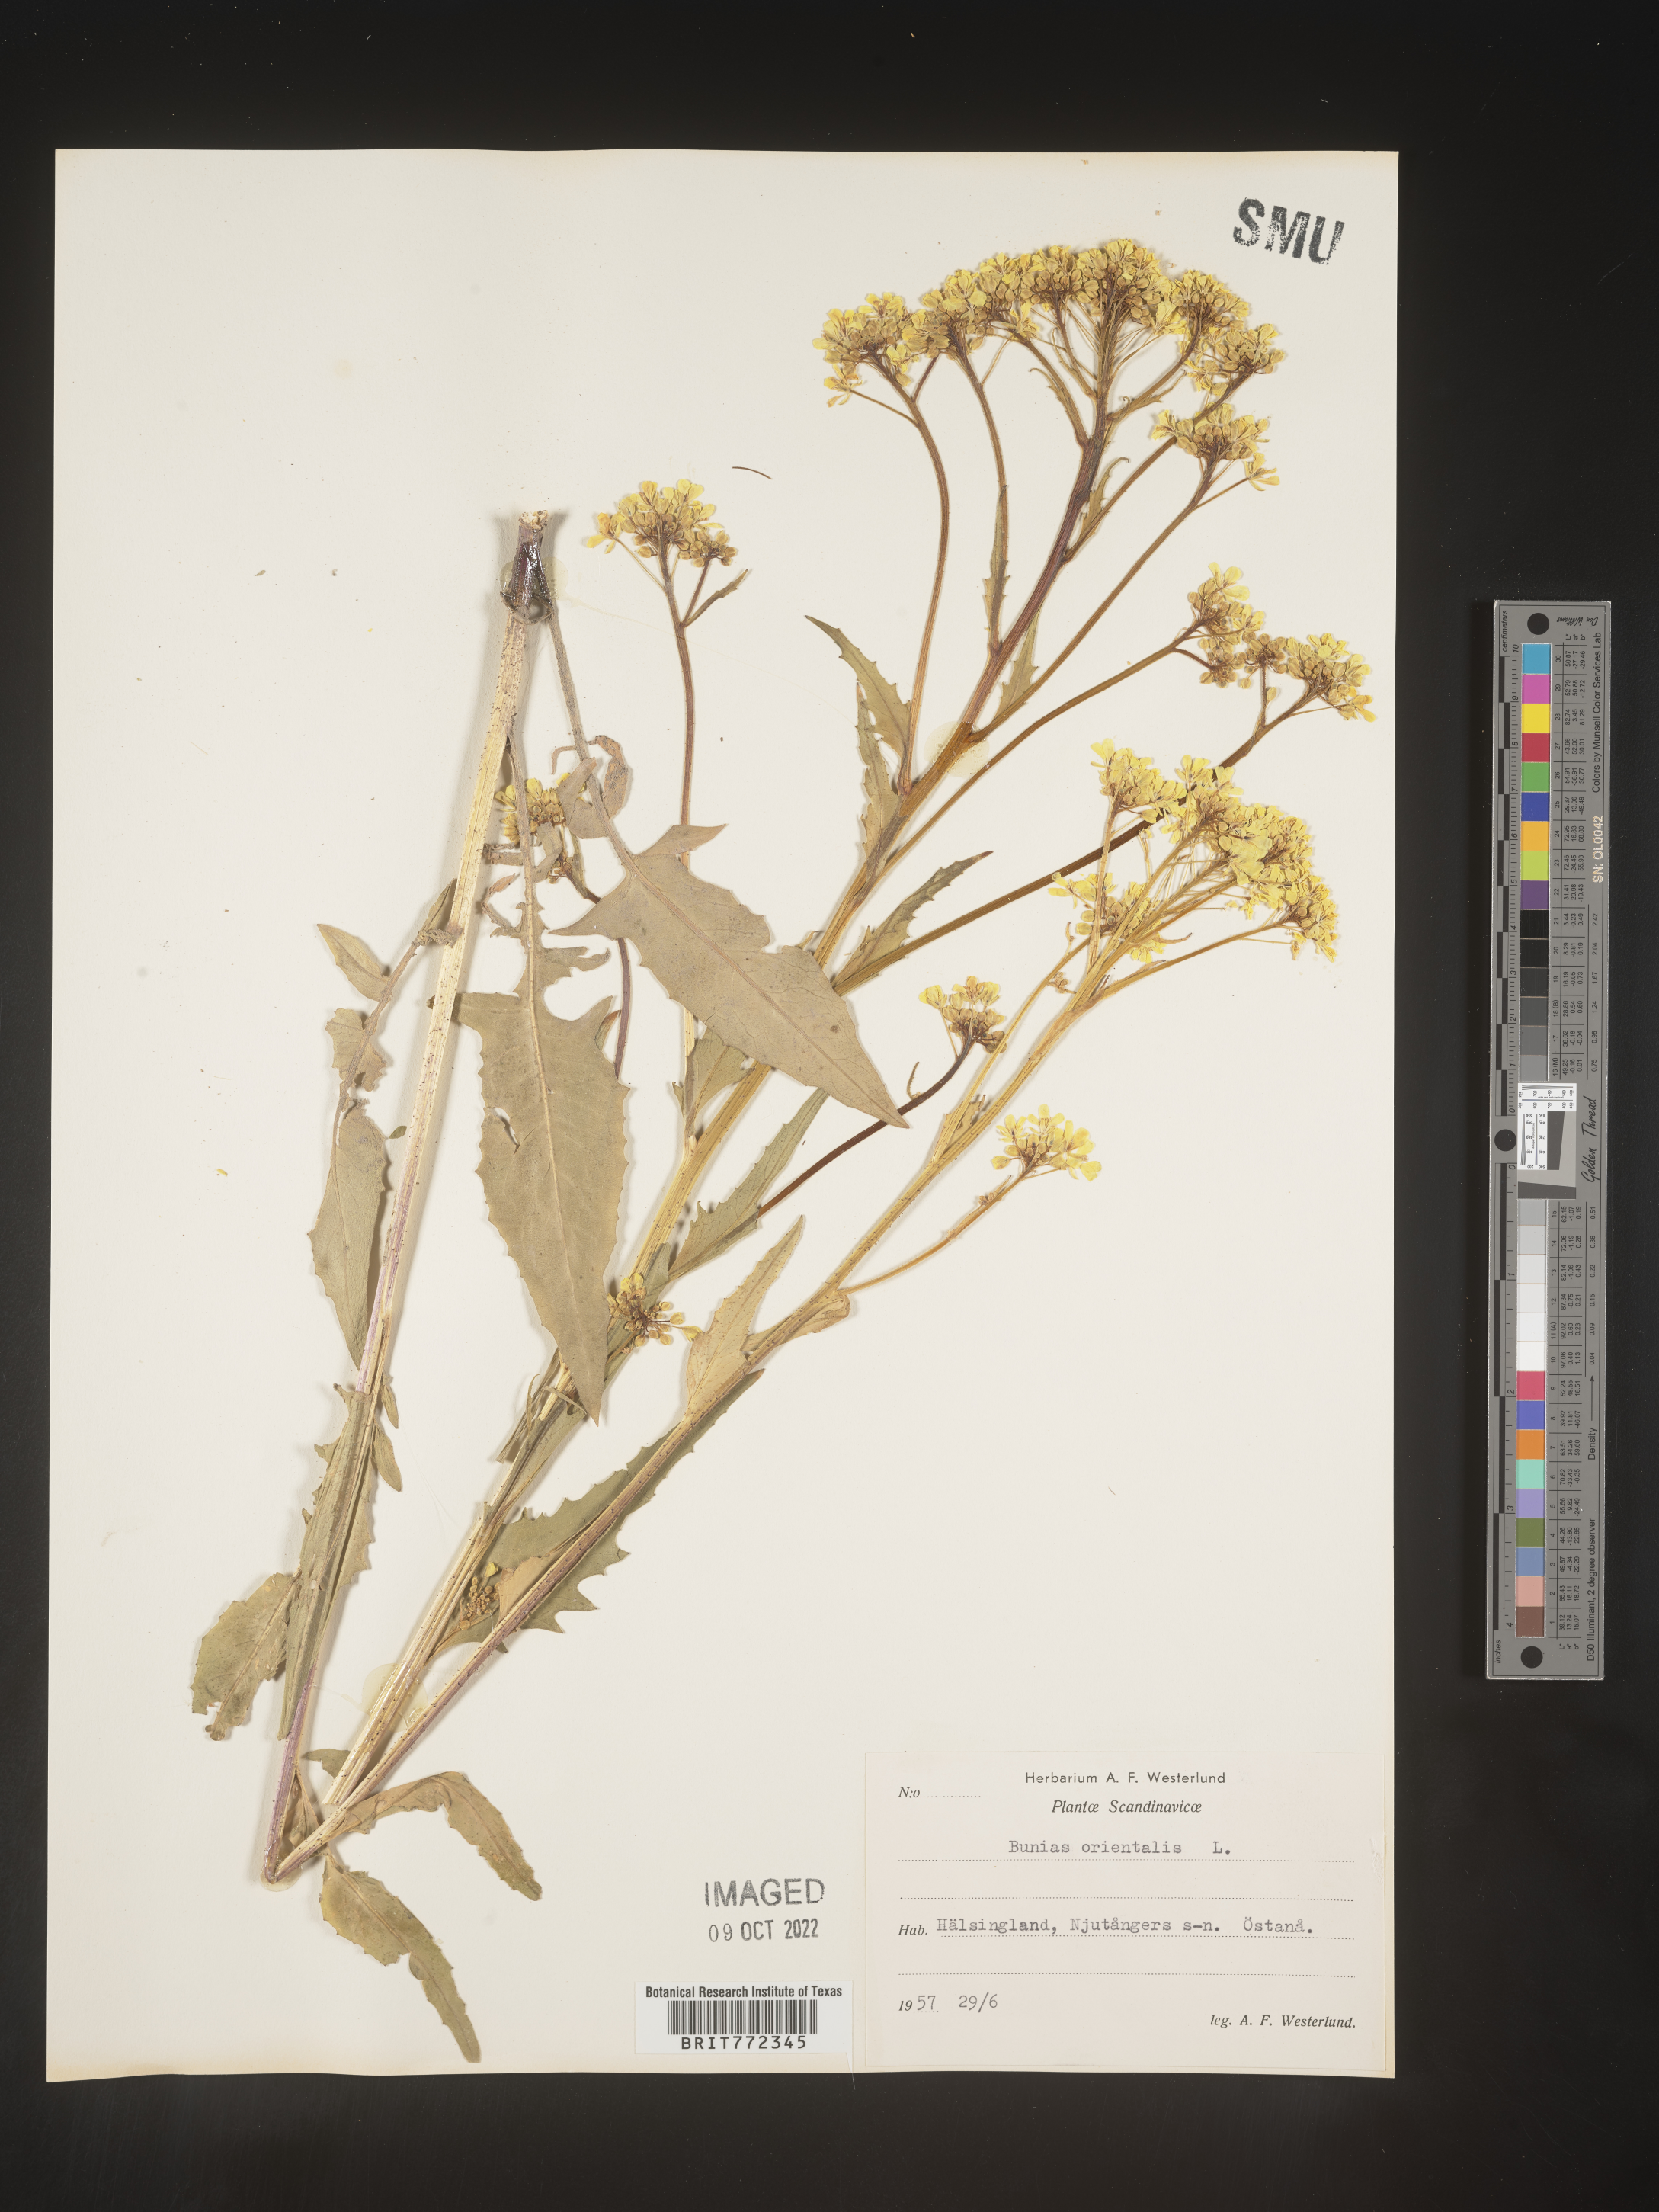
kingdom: Plantae
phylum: Tracheophyta
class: Magnoliopsida
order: Brassicales
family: Brassicaceae
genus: Bunias
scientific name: Bunias
